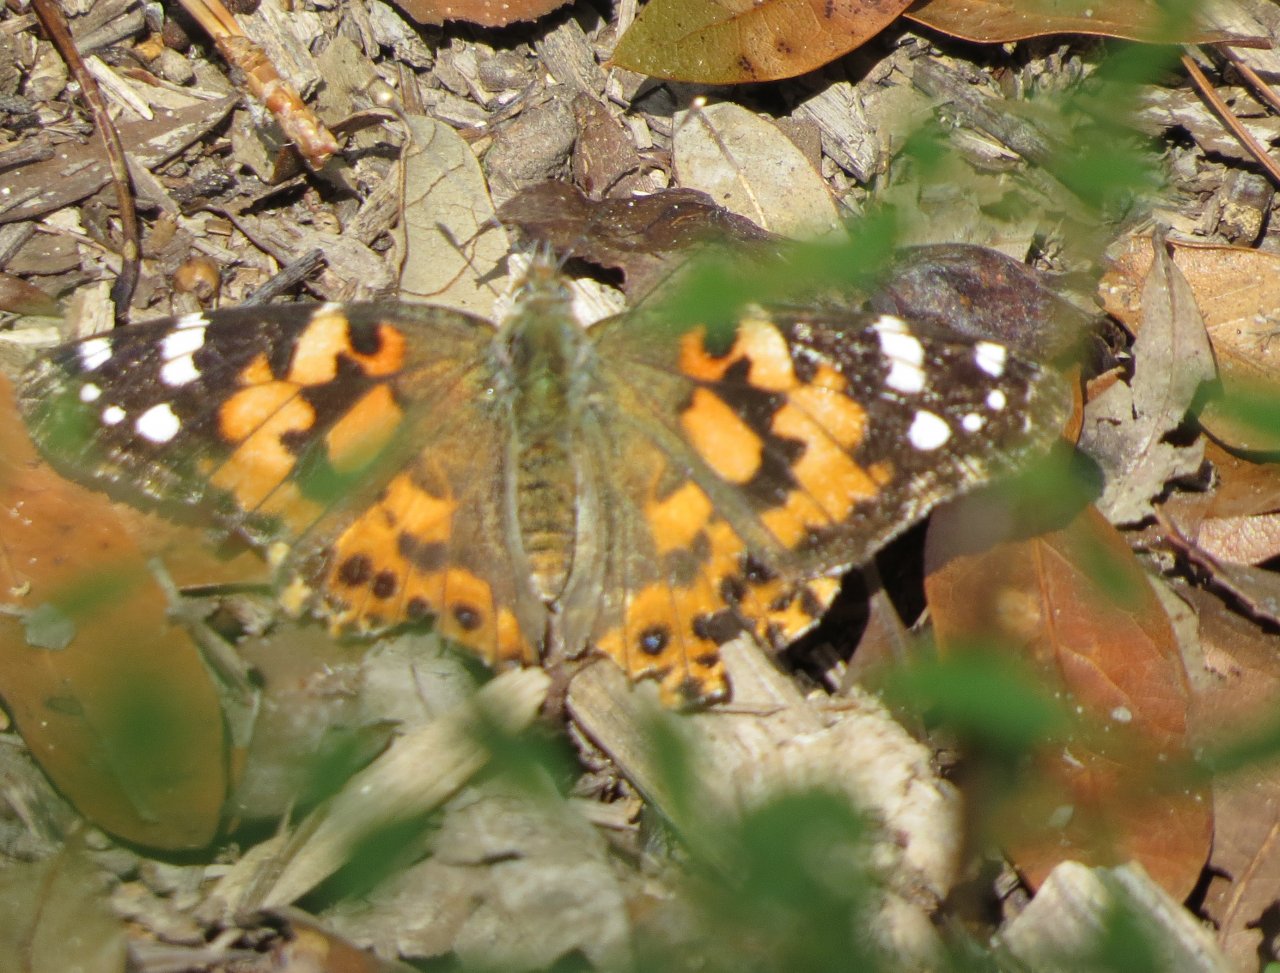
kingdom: Animalia
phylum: Arthropoda
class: Insecta
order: Lepidoptera
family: Nymphalidae
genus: Vanessa
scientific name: Vanessa cardui
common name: Painted Lady
